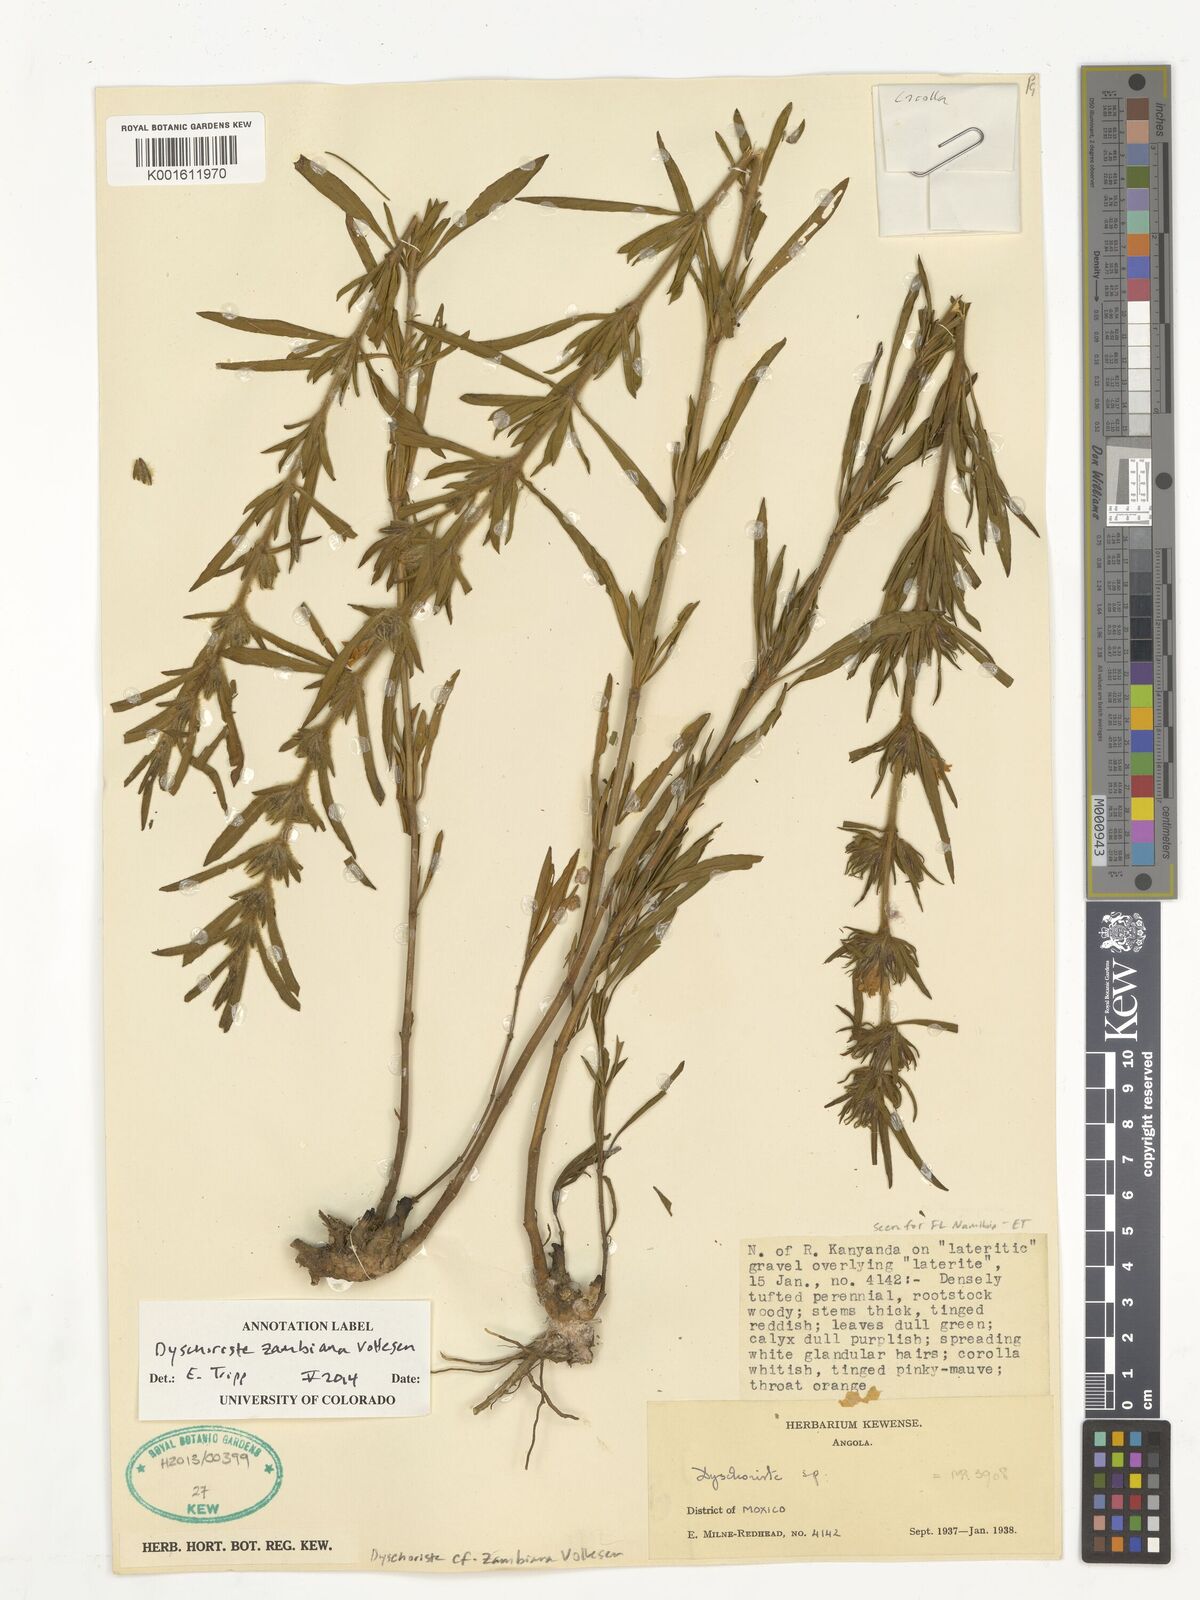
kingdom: Plantae
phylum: Tracheophyta
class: Magnoliopsida
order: Lamiales
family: Acanthaceae
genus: Dyschoriste
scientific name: Dyschoriste zambiana
